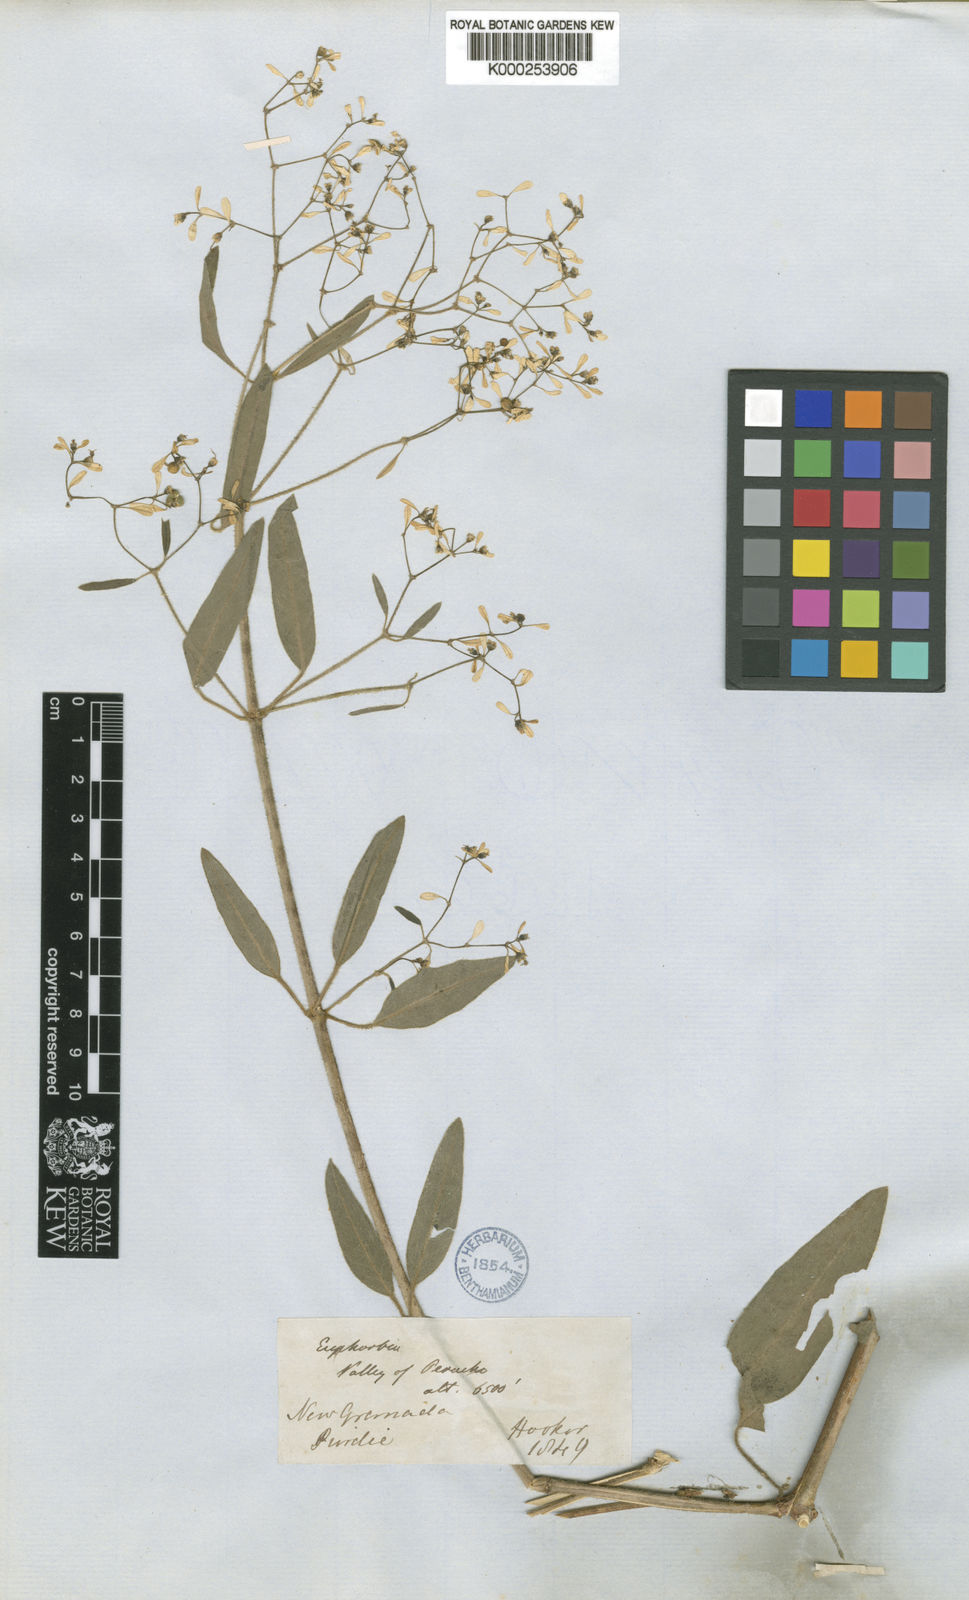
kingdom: Plantae
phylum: Tracheophyta
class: Magnoliopsida
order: Malpighiales
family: Euphorbiaceae
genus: Euphorbia
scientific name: Euphorbia arenaria
